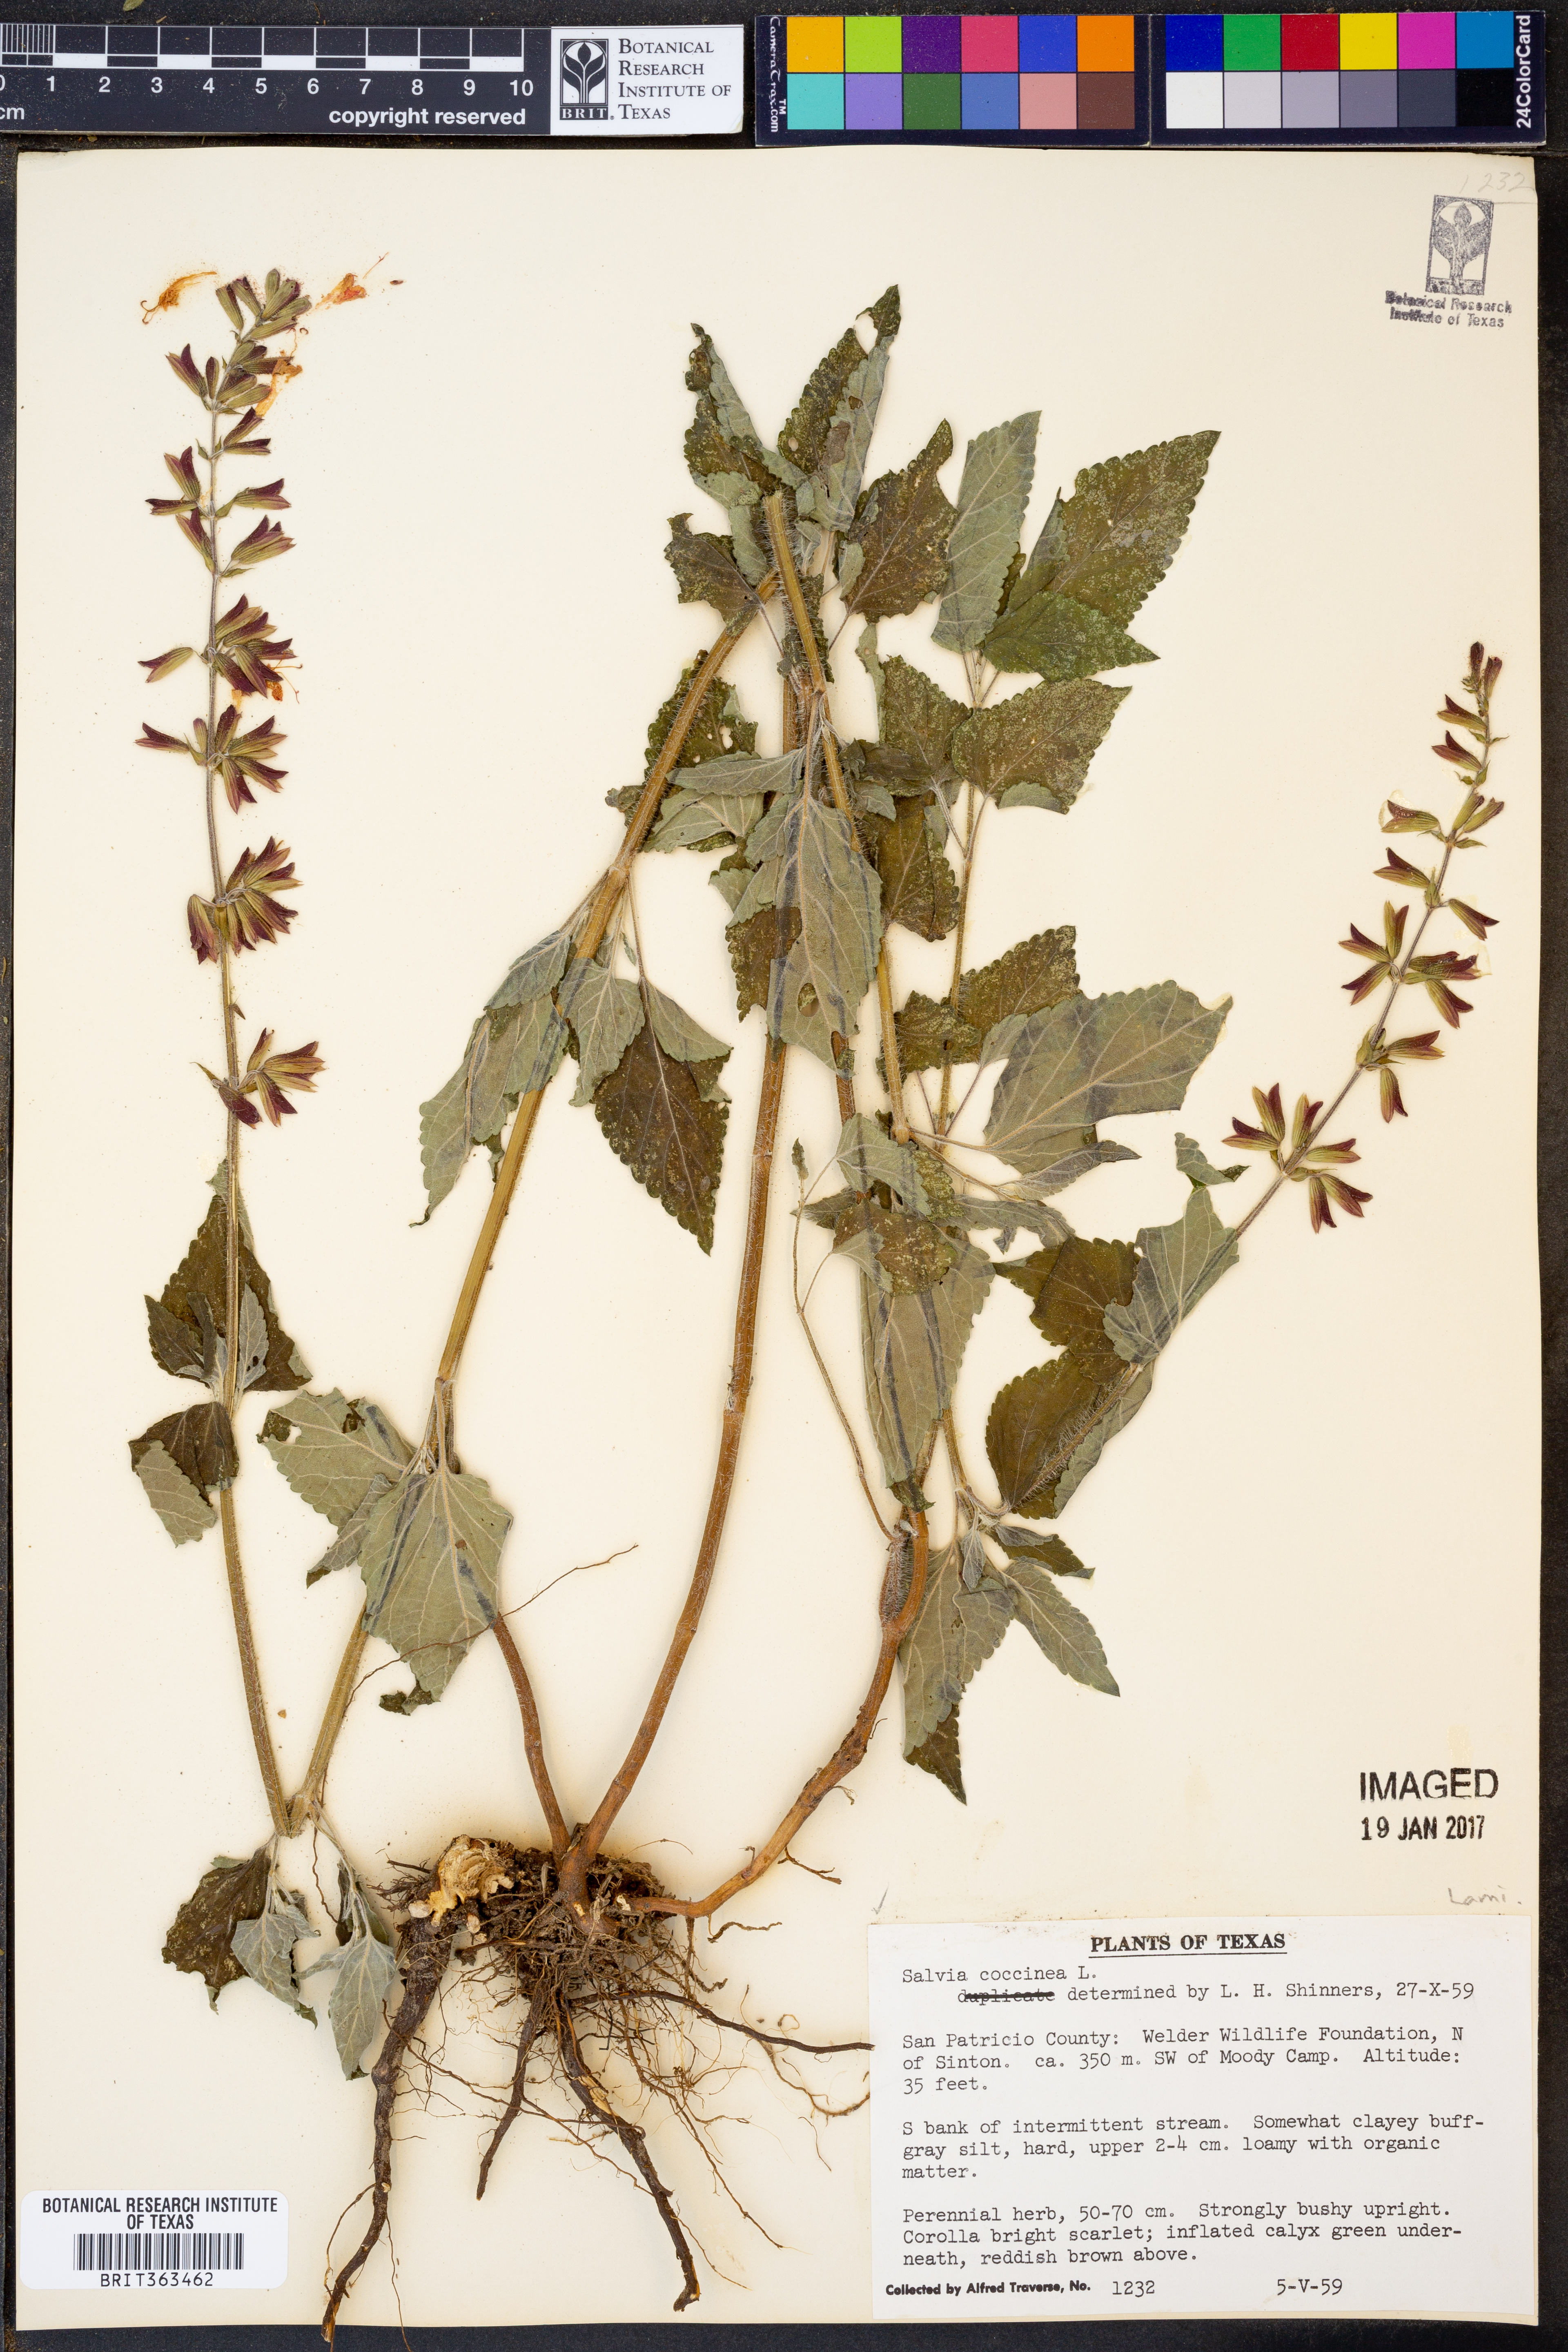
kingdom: Plantae
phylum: Tracheophyta
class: Magnoliopsida
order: Lamiales
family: Lamiaceae
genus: Salvia
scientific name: Salvia coccinea
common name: Blood sage
